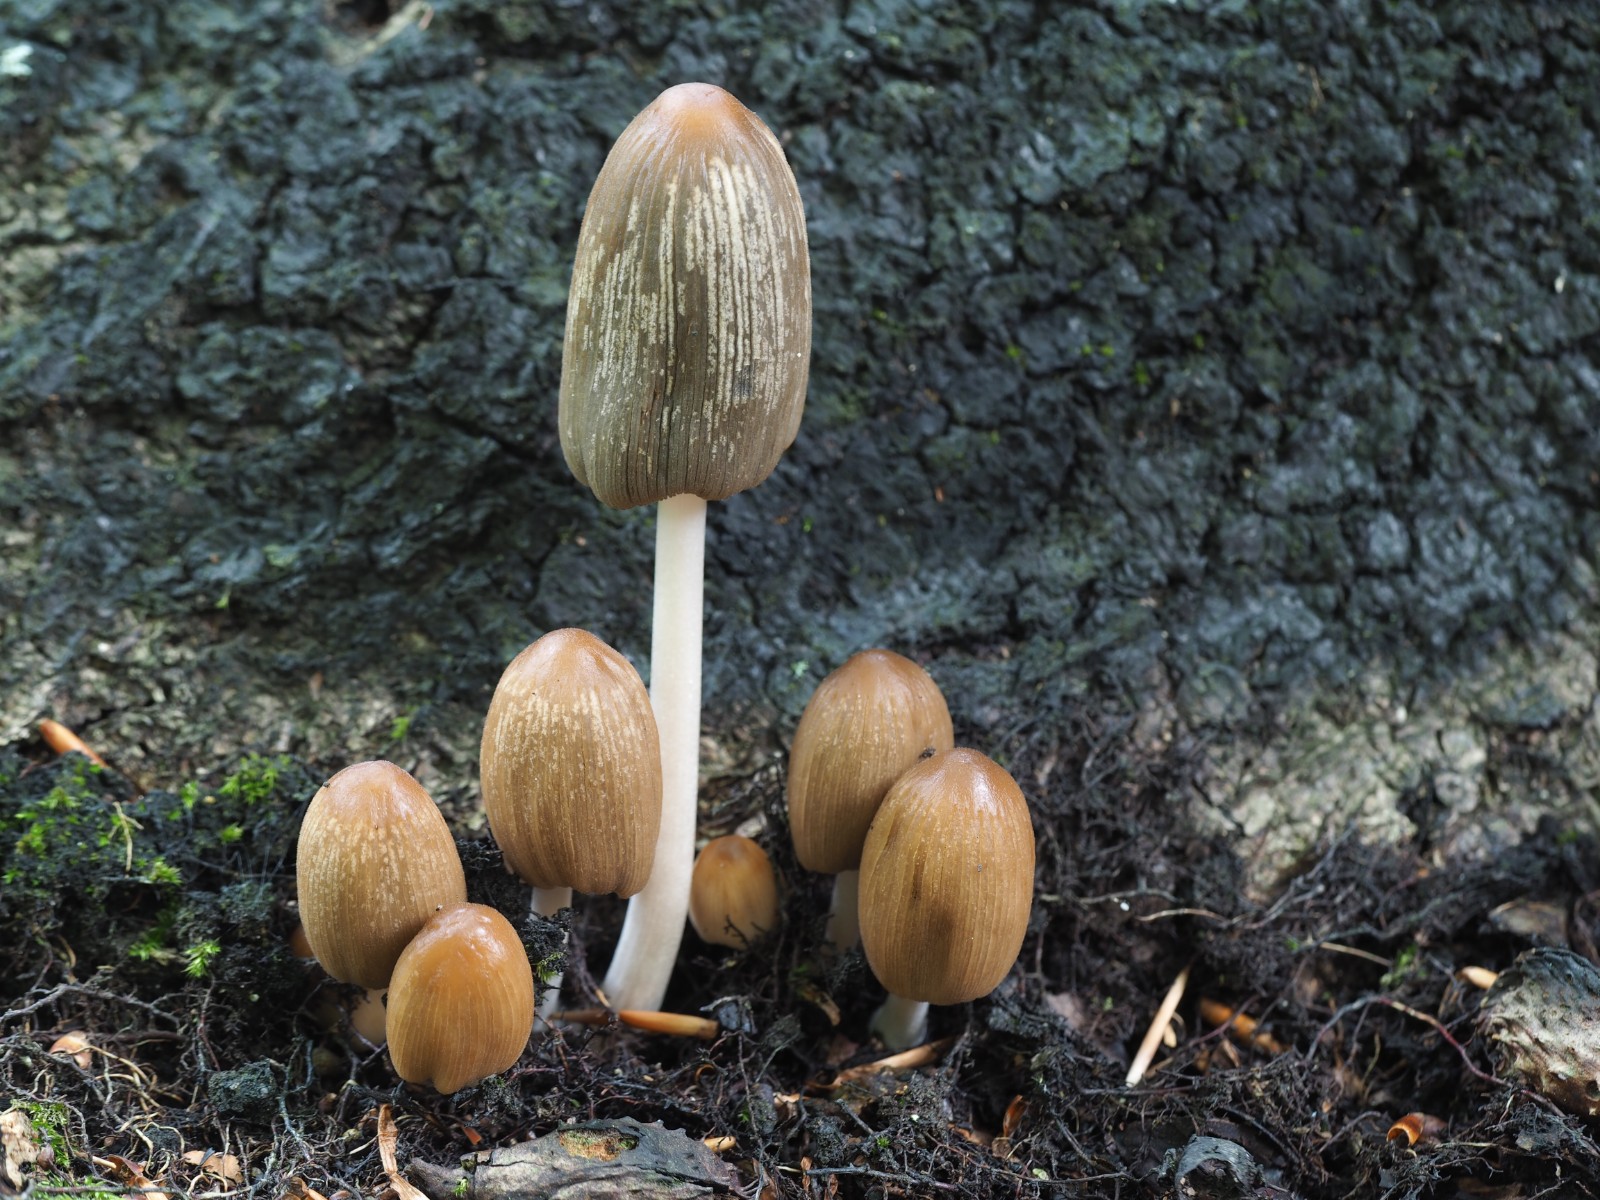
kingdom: Fungi
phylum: Basidiomycota
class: Agaricomycetes
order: Agaricales
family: Psathyrellaceae
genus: Tulosesus
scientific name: Tulosesus angulatus
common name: kul-blækhat
